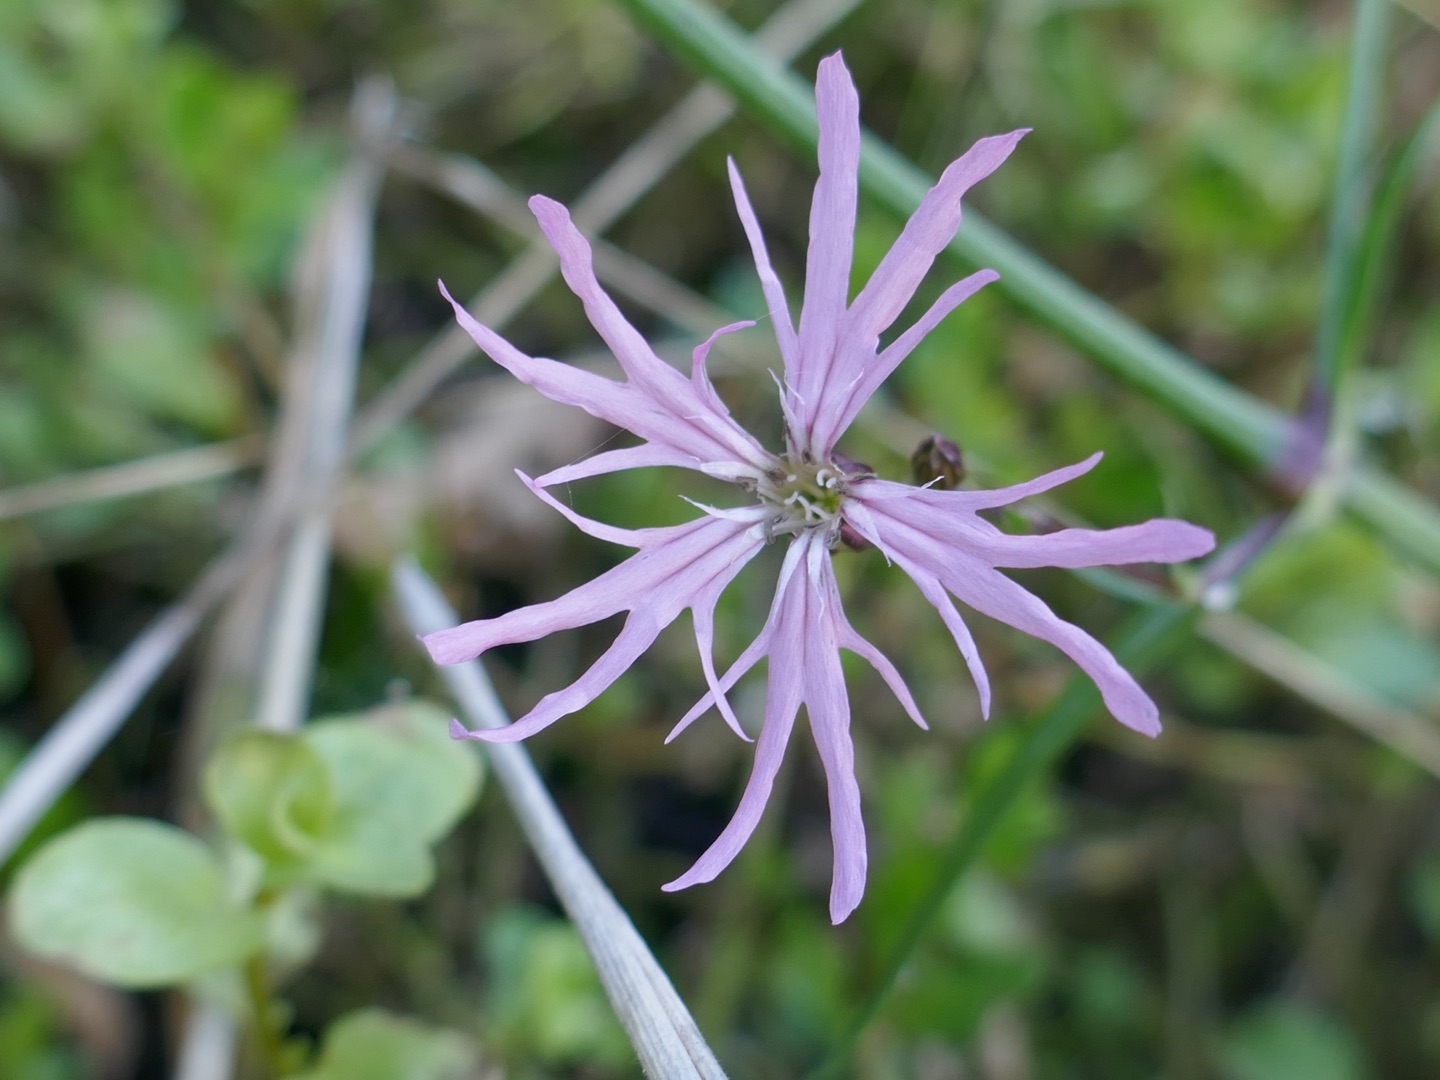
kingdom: Plantae
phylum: Tracheophyta
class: Magnoliopsida
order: Caryophyllales
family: Caryophyllaceae
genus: Silene
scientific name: Silene flos-cuculi
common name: Trævlekrone
